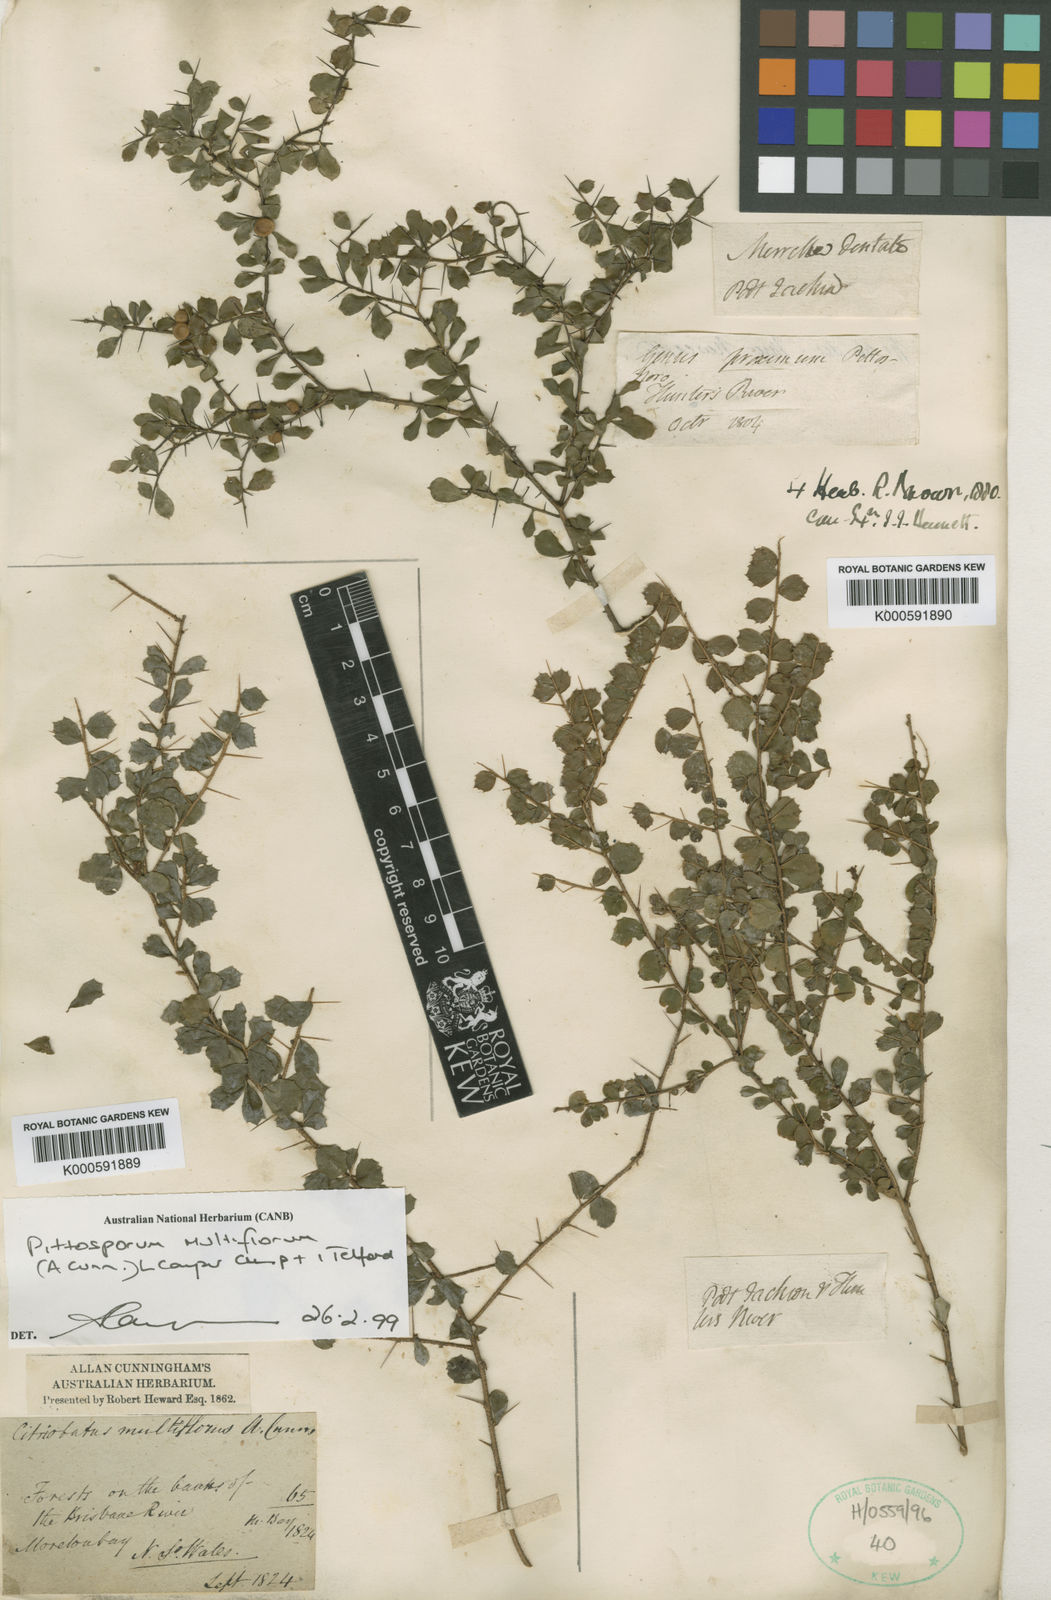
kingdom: Plantae
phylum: Tracheophyta
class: Magnoliopsida
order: Apiales
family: Pittosporaceae
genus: Pittosporum
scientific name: Pittosporum multiflorum
